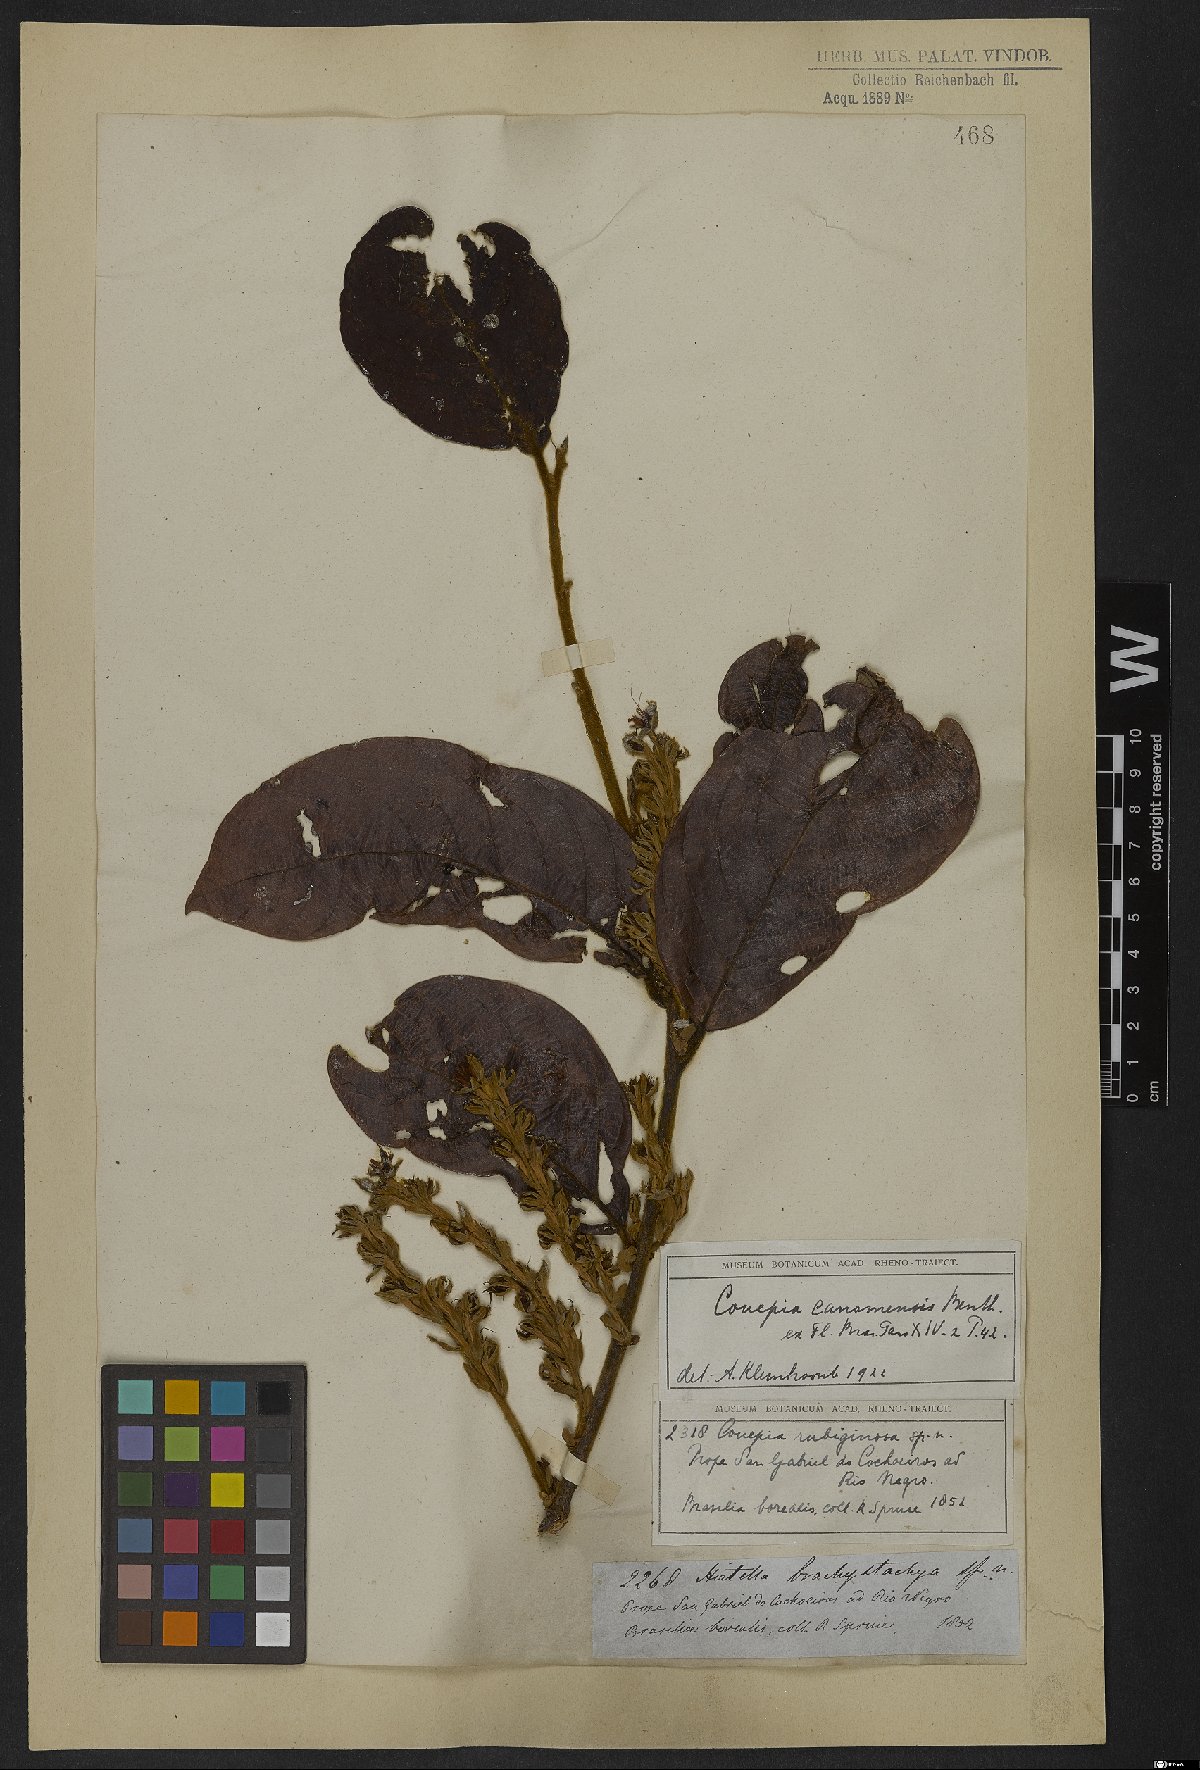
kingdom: Plantae
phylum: Tracheophyta
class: Magnoliopsida
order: Malpighiales
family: Chrysobalanaceae
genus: Gaulettia
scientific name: Gaulettia canomensis
